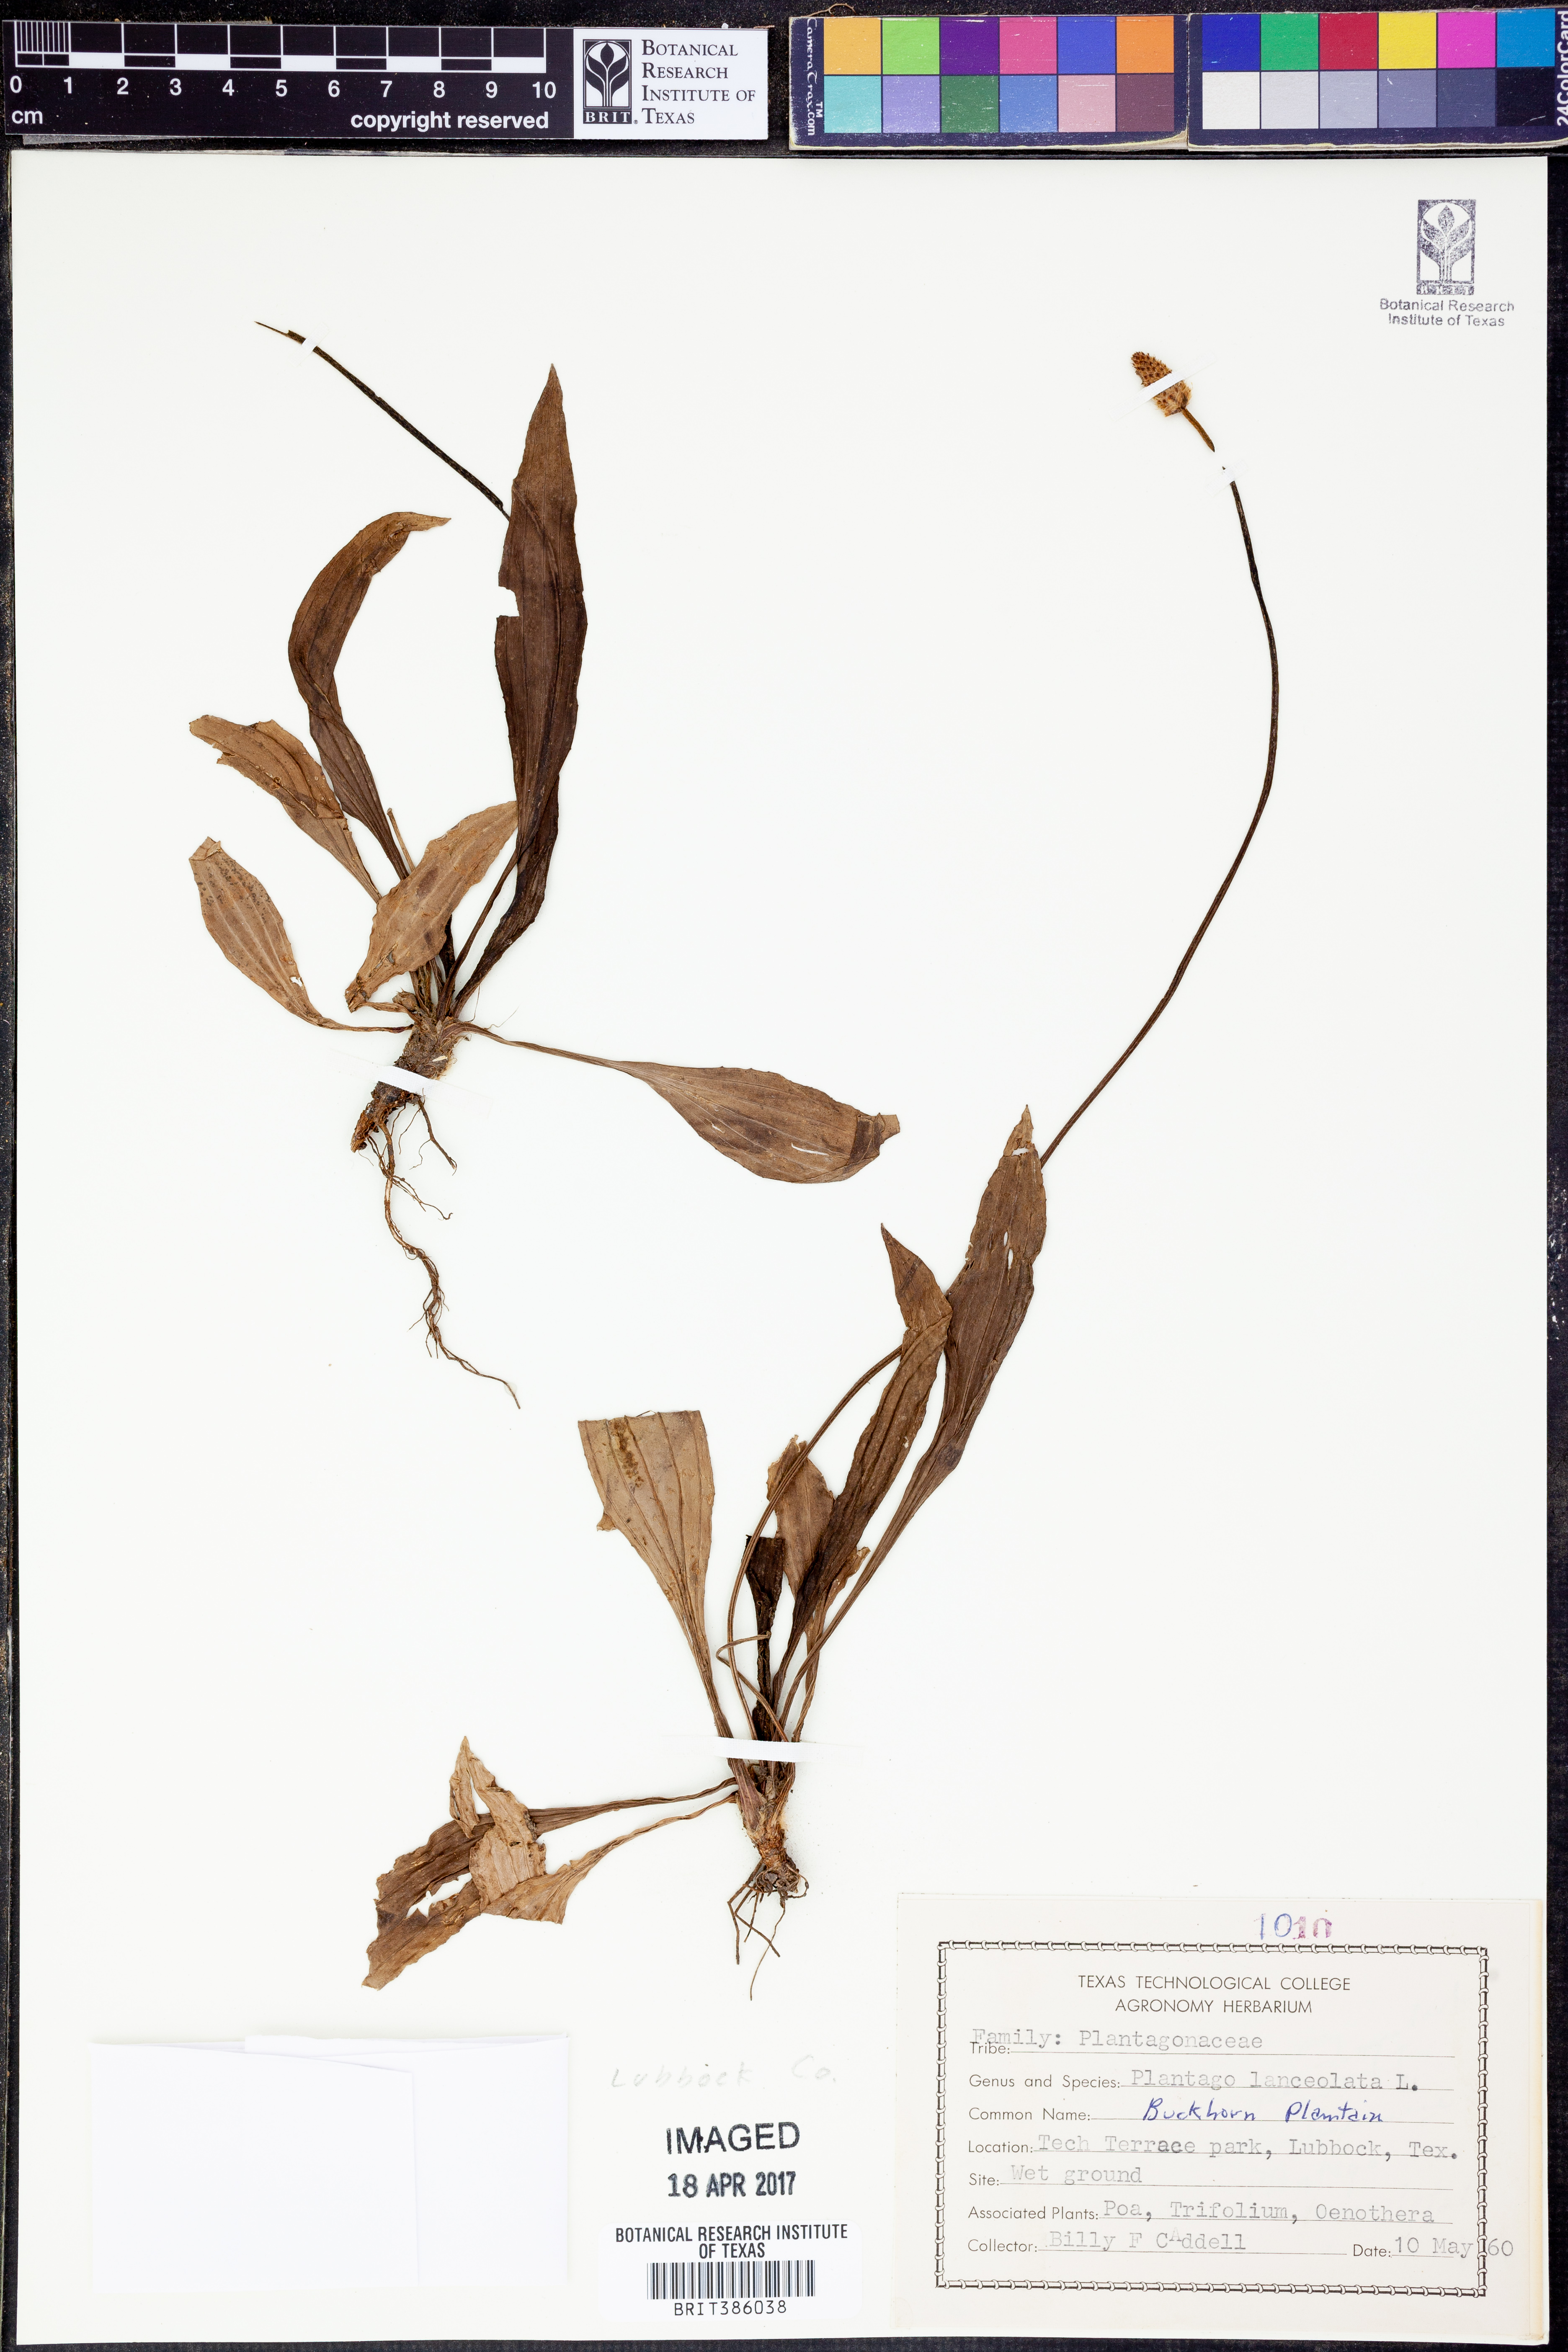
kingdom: Plantae
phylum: Tracheophyta
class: Magnoliopsida
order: Lamiales
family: Plantaginaceae
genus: Plantago
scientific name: Plantago lanceolata
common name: Ribwort plantain
